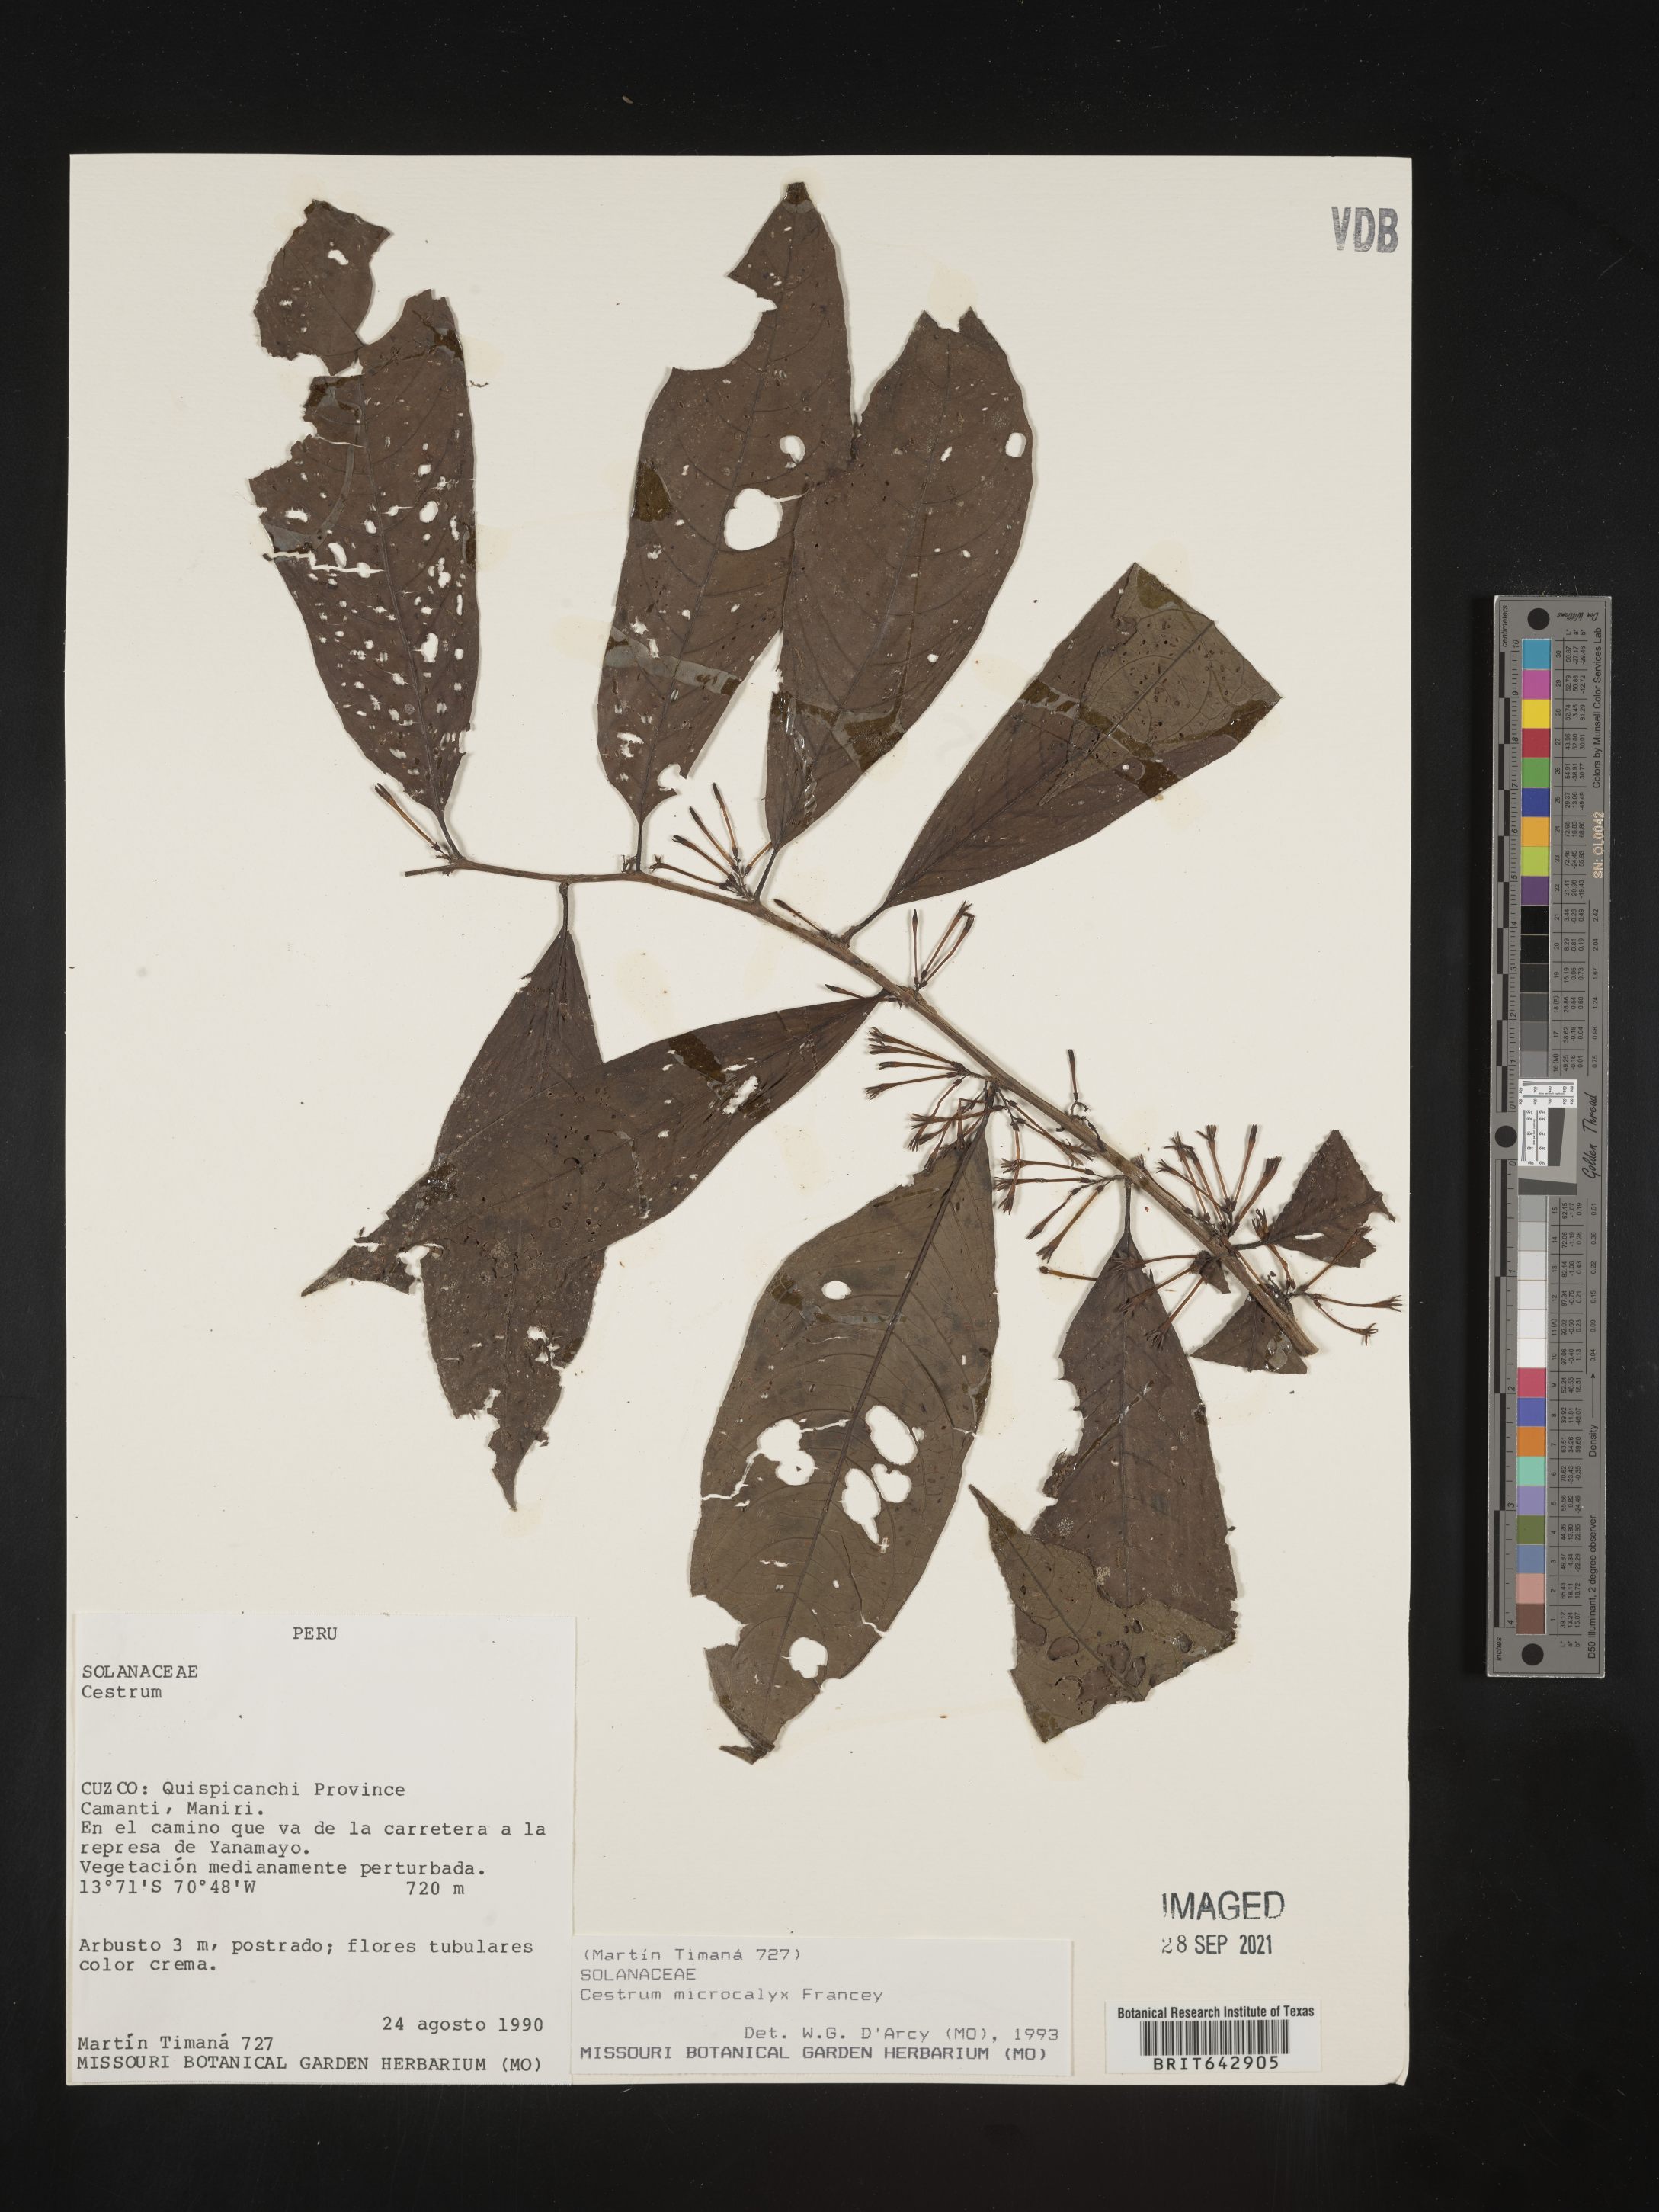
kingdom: Plantae
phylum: Tracheophyta
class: Magnoliopsida
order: Solanales
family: Solanaceae
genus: Cestrum
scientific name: Cestrum
